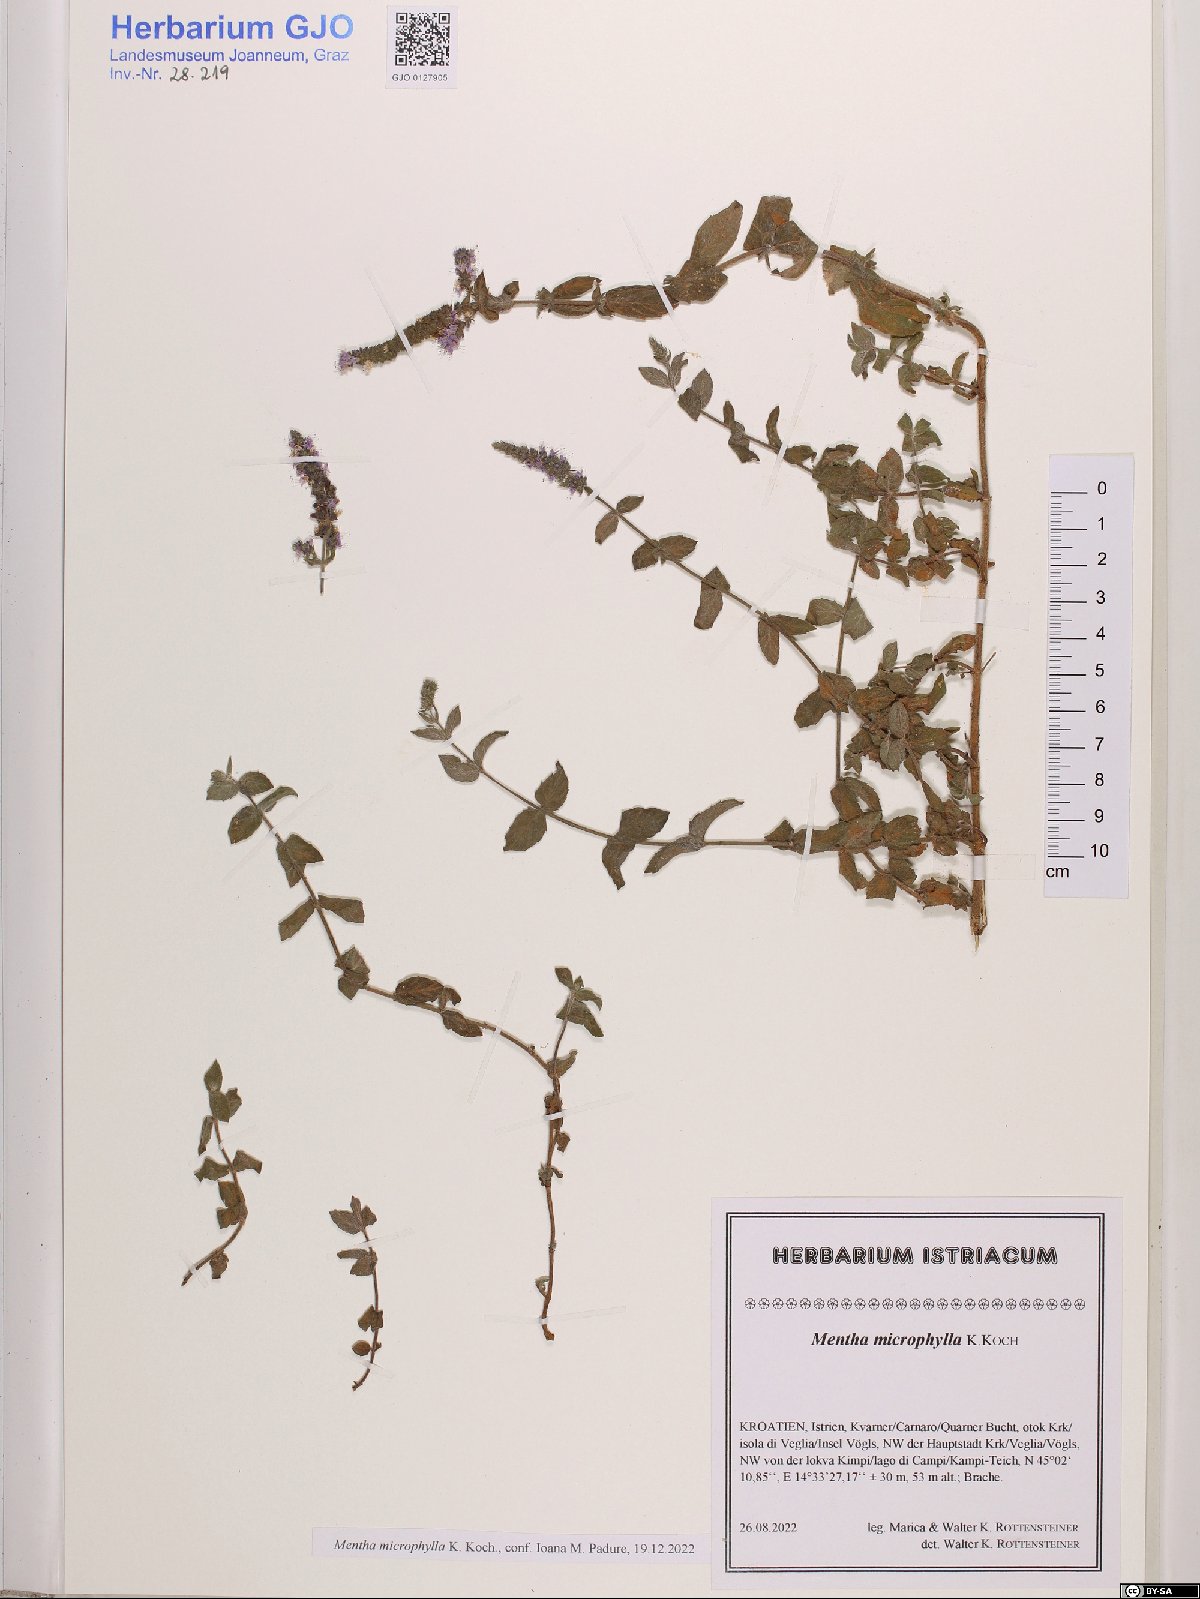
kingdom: Plantae
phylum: Tracheophyta
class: Magnoliopsida
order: Lamiales
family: Lamiaceae
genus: Mentha
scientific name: Mentha spicata
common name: Spearmint
